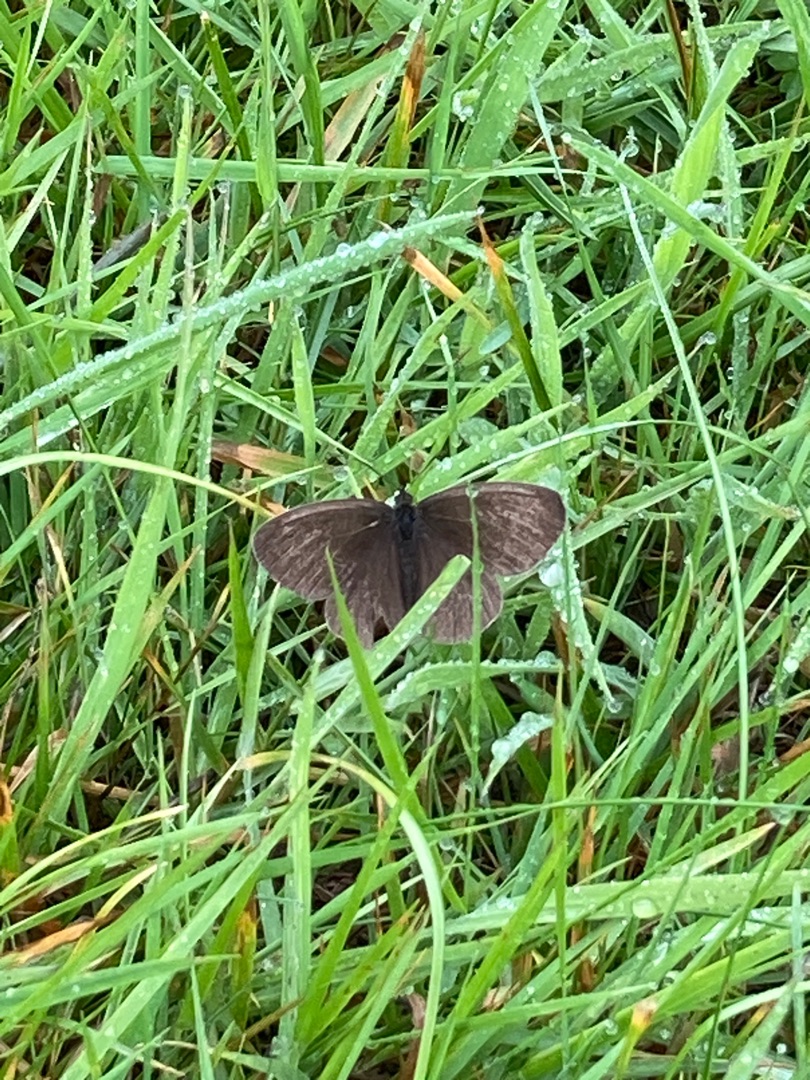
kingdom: Animalia
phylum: Arthropoda
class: Insecta
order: Lepidoptera
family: Nymphalidae
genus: Aphantopus
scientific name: Aphantopus hyperantus
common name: Engrandøje
